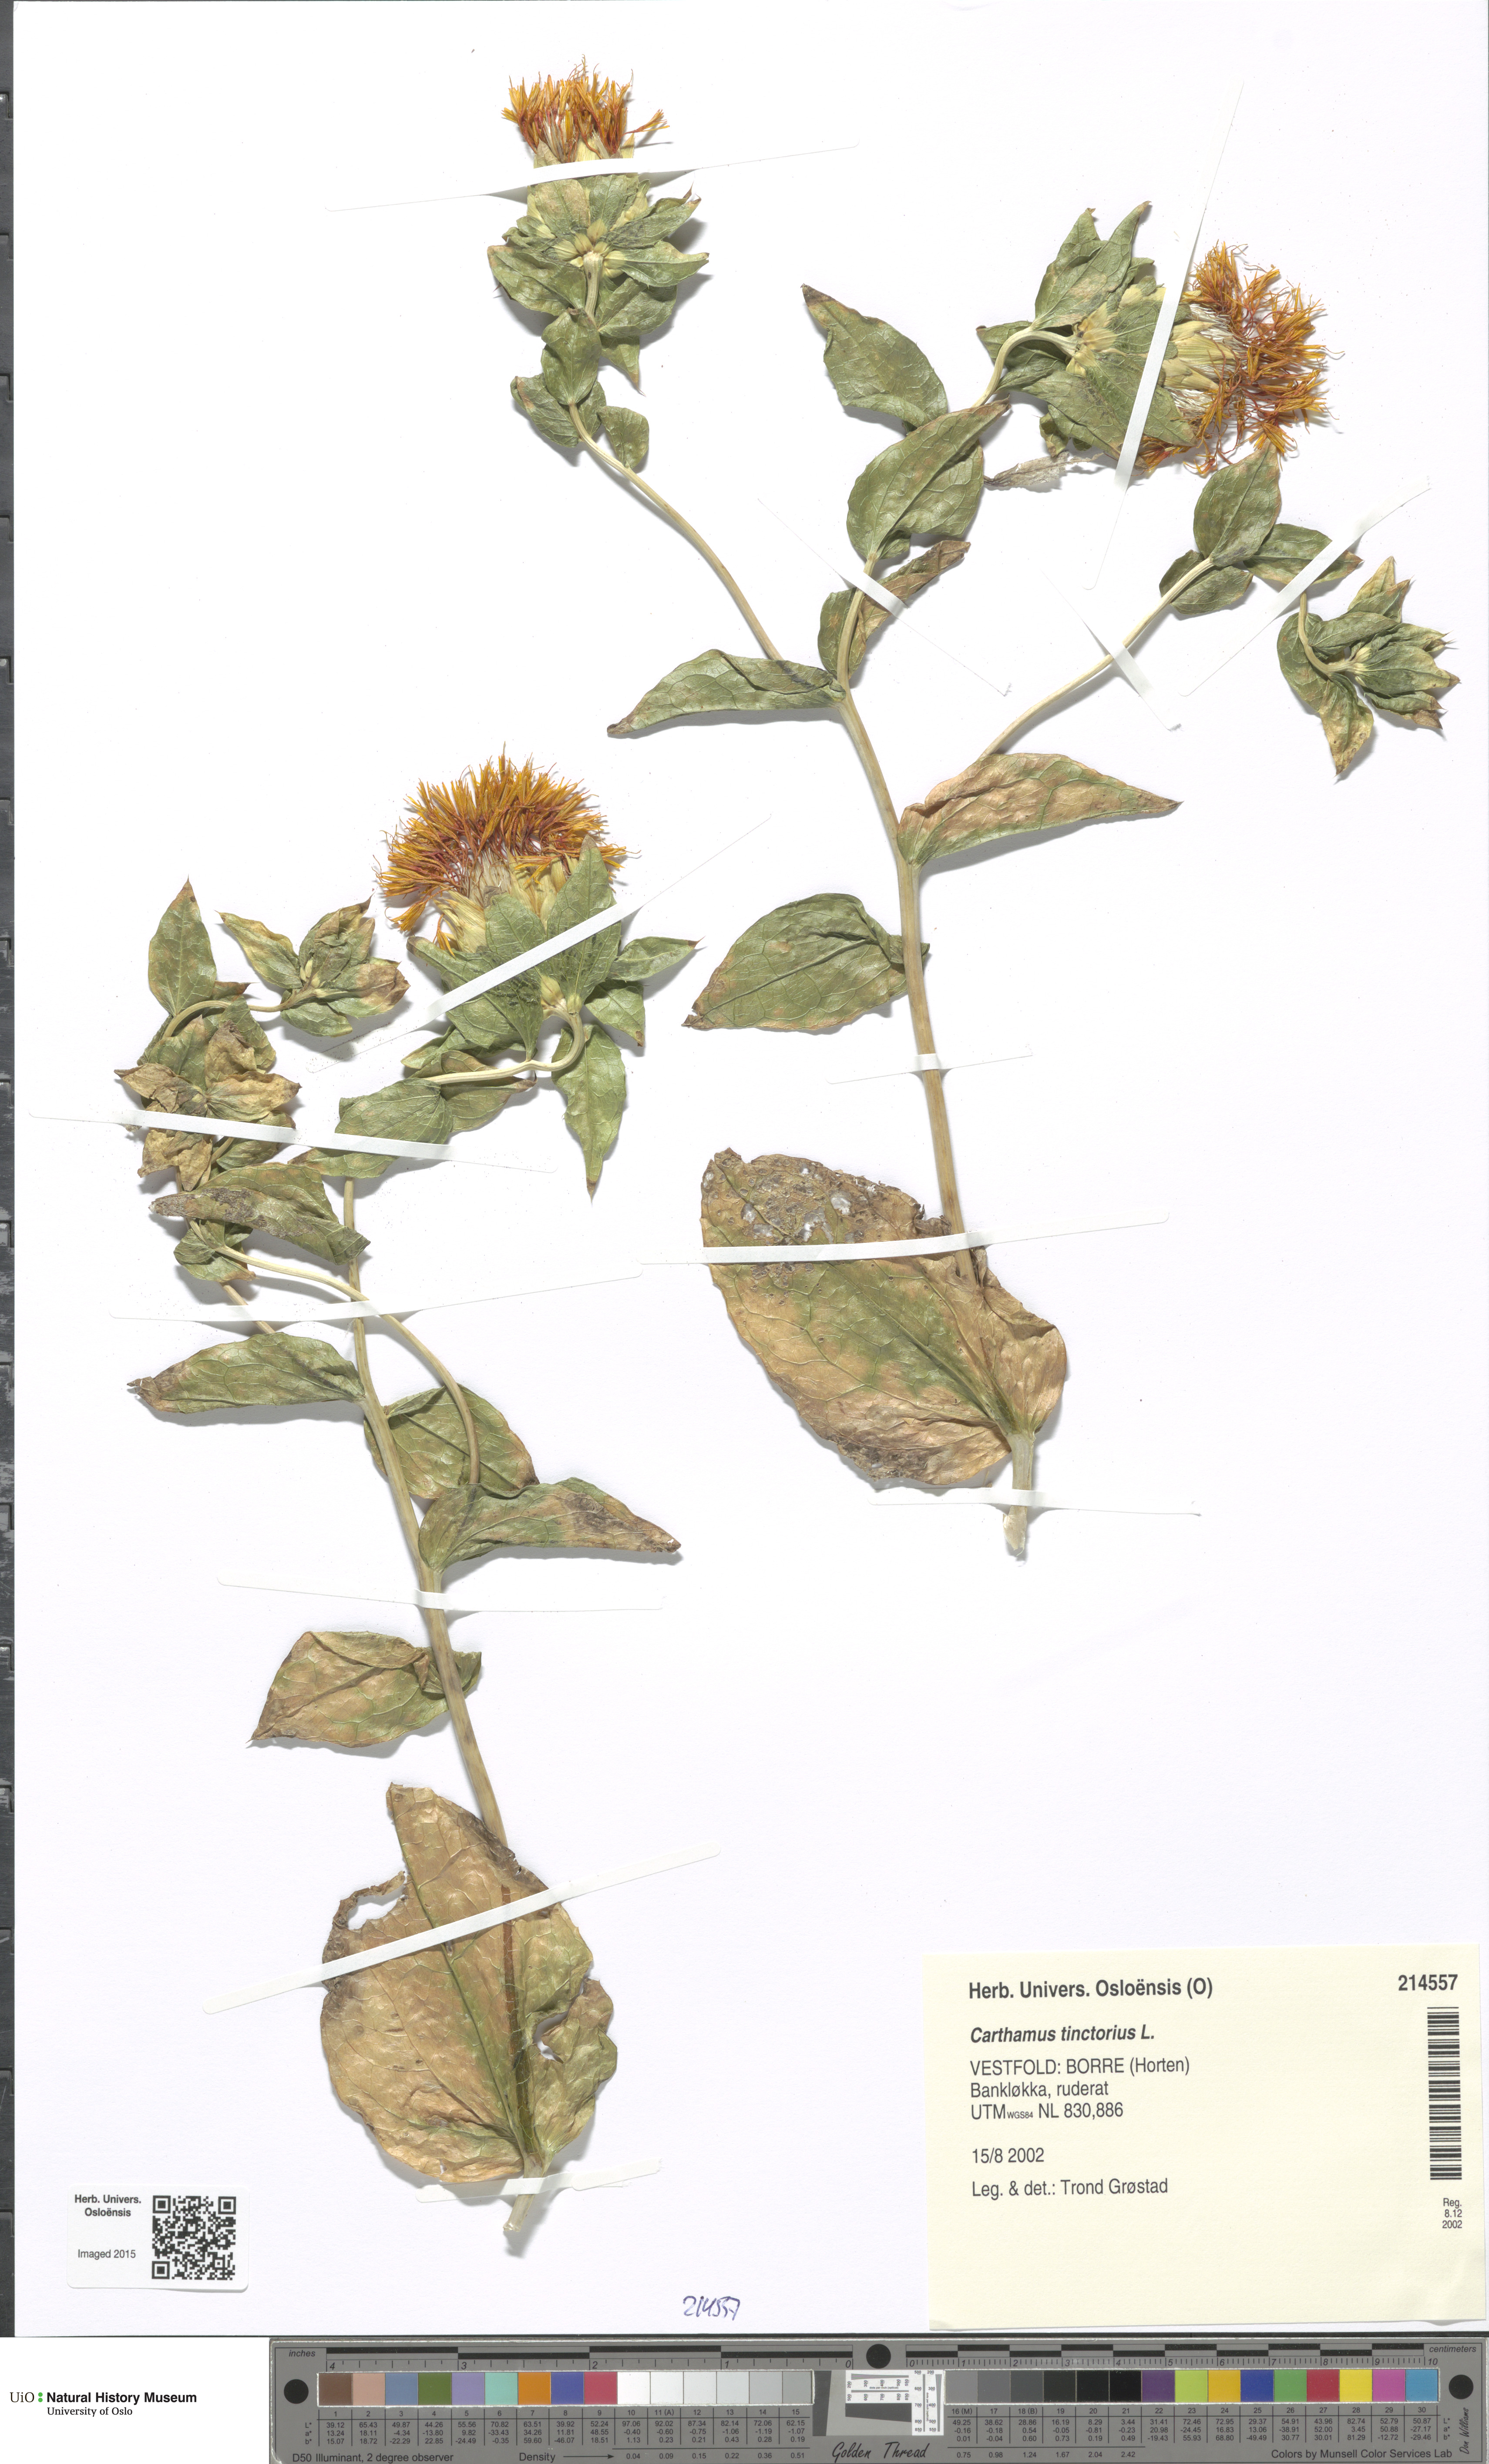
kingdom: Plantae
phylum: Tracheophyta
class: Magnoliopsida
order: Asterales
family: Asteraceae
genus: Carthamus
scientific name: Carthamus tinctorius
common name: Safflower
